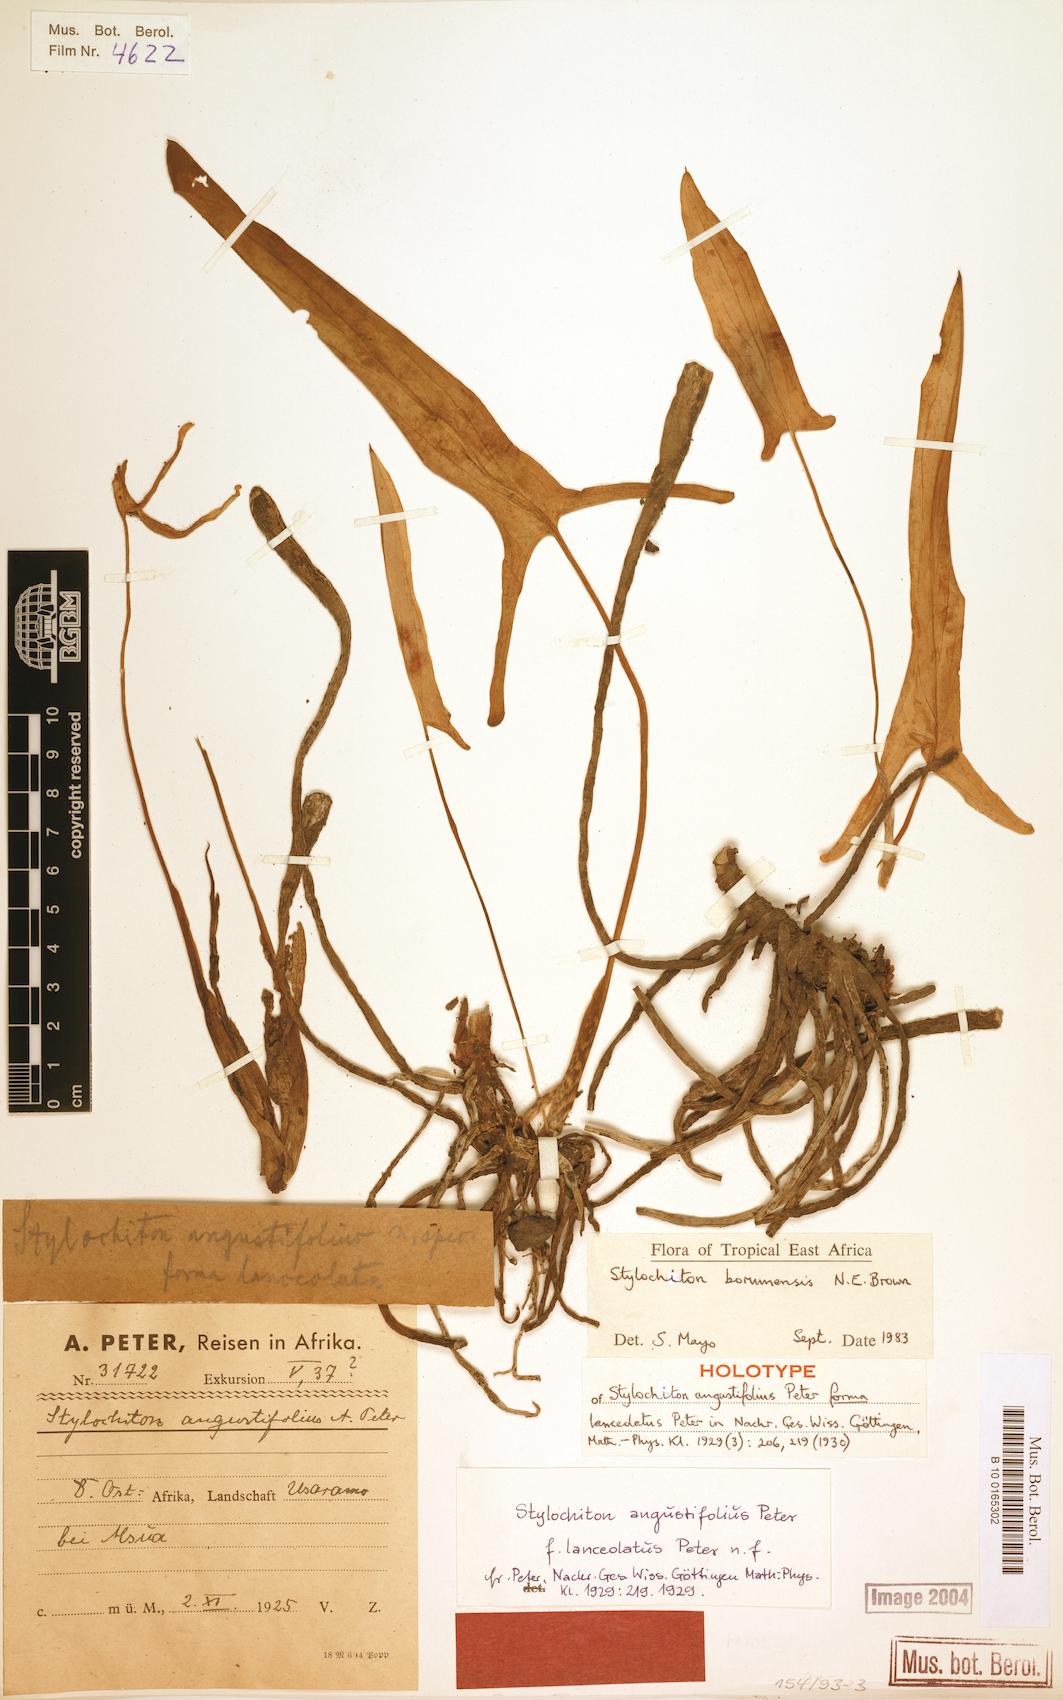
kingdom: Plantae
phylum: Tracheophyta
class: Liliopsida
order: Alismatales
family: Araceae
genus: Stylochiton
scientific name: Stylochiton borumensis
